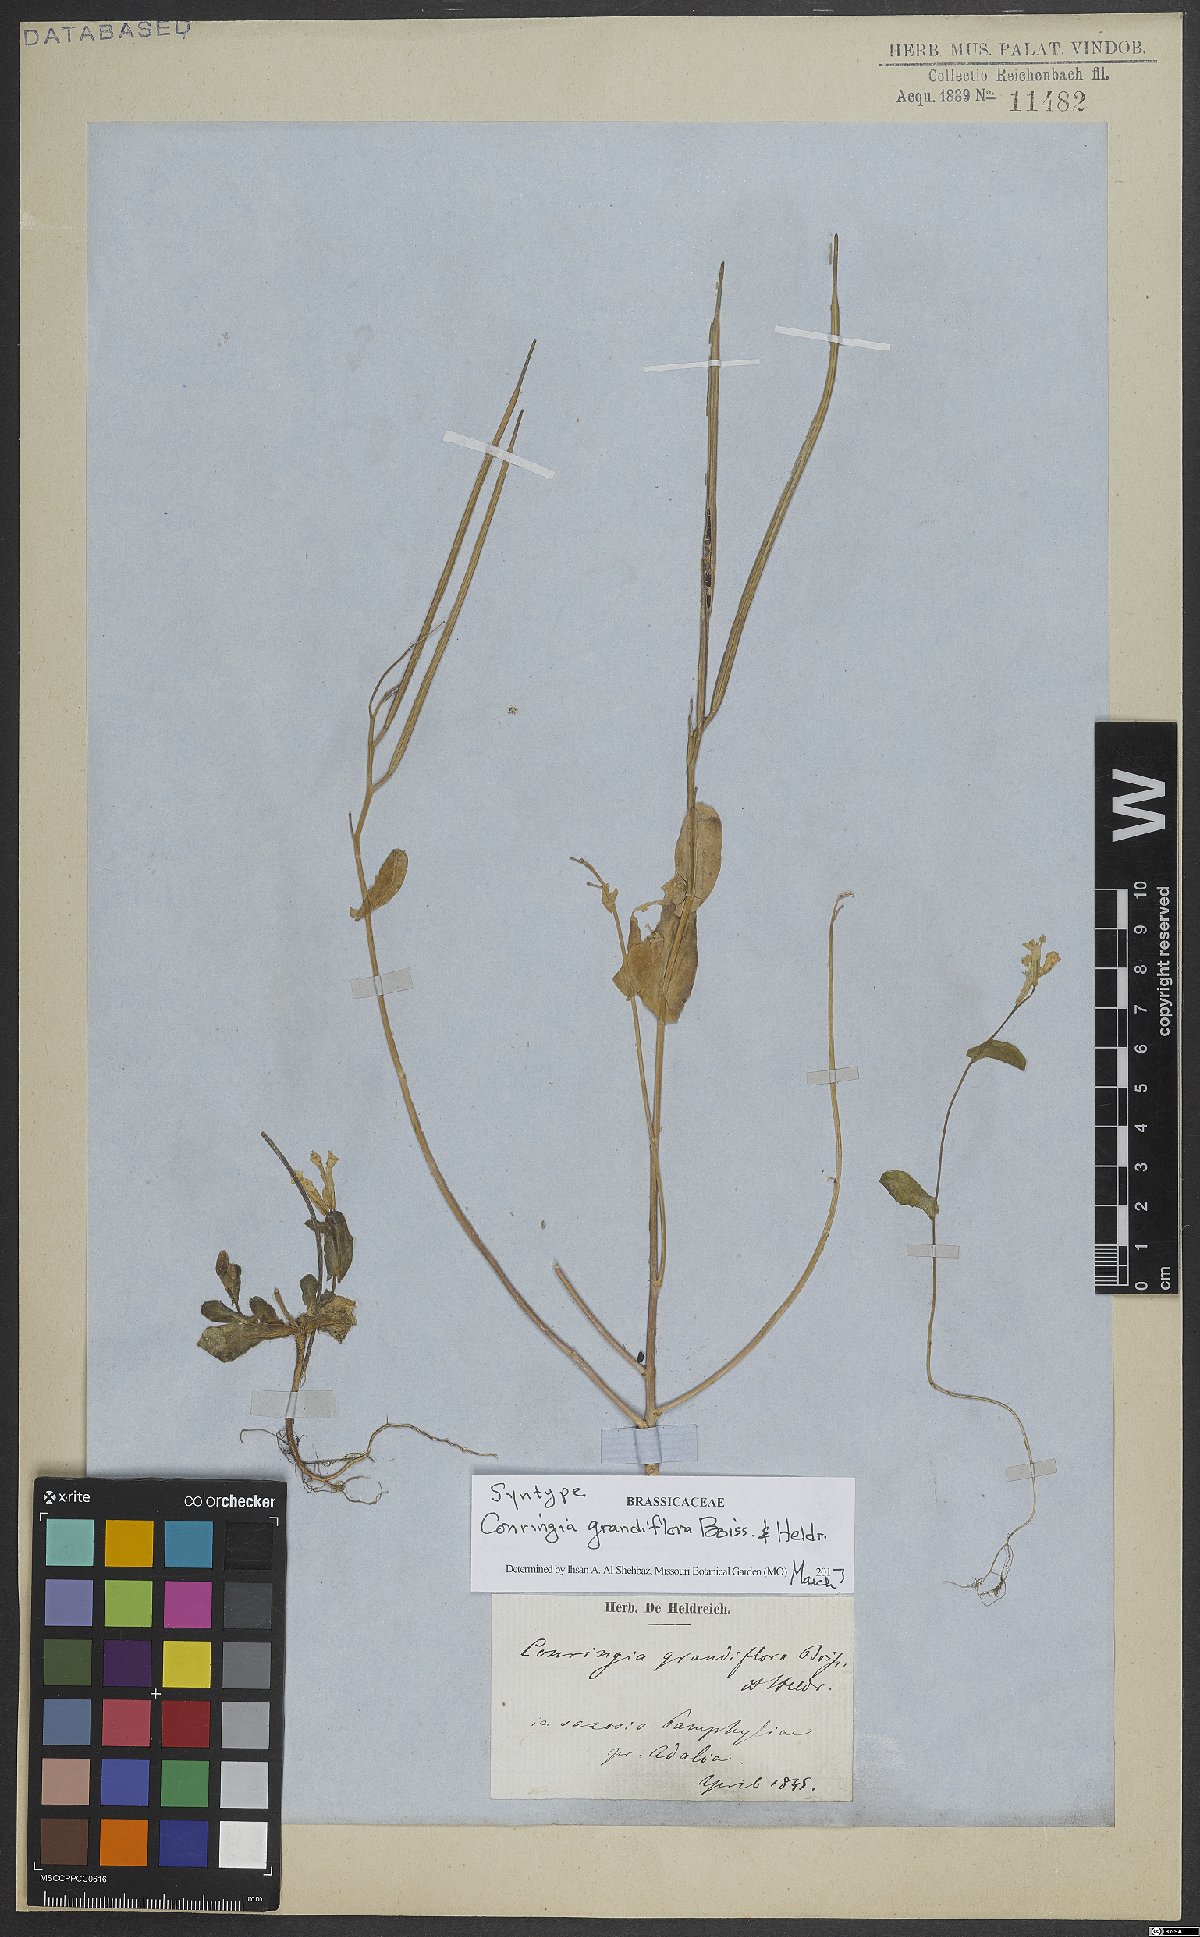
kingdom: Plantae
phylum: Tracheophyta
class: Magnoliopsida
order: Brassicales
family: Brassicaceae
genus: Conringia
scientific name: Conringia grandiflora
